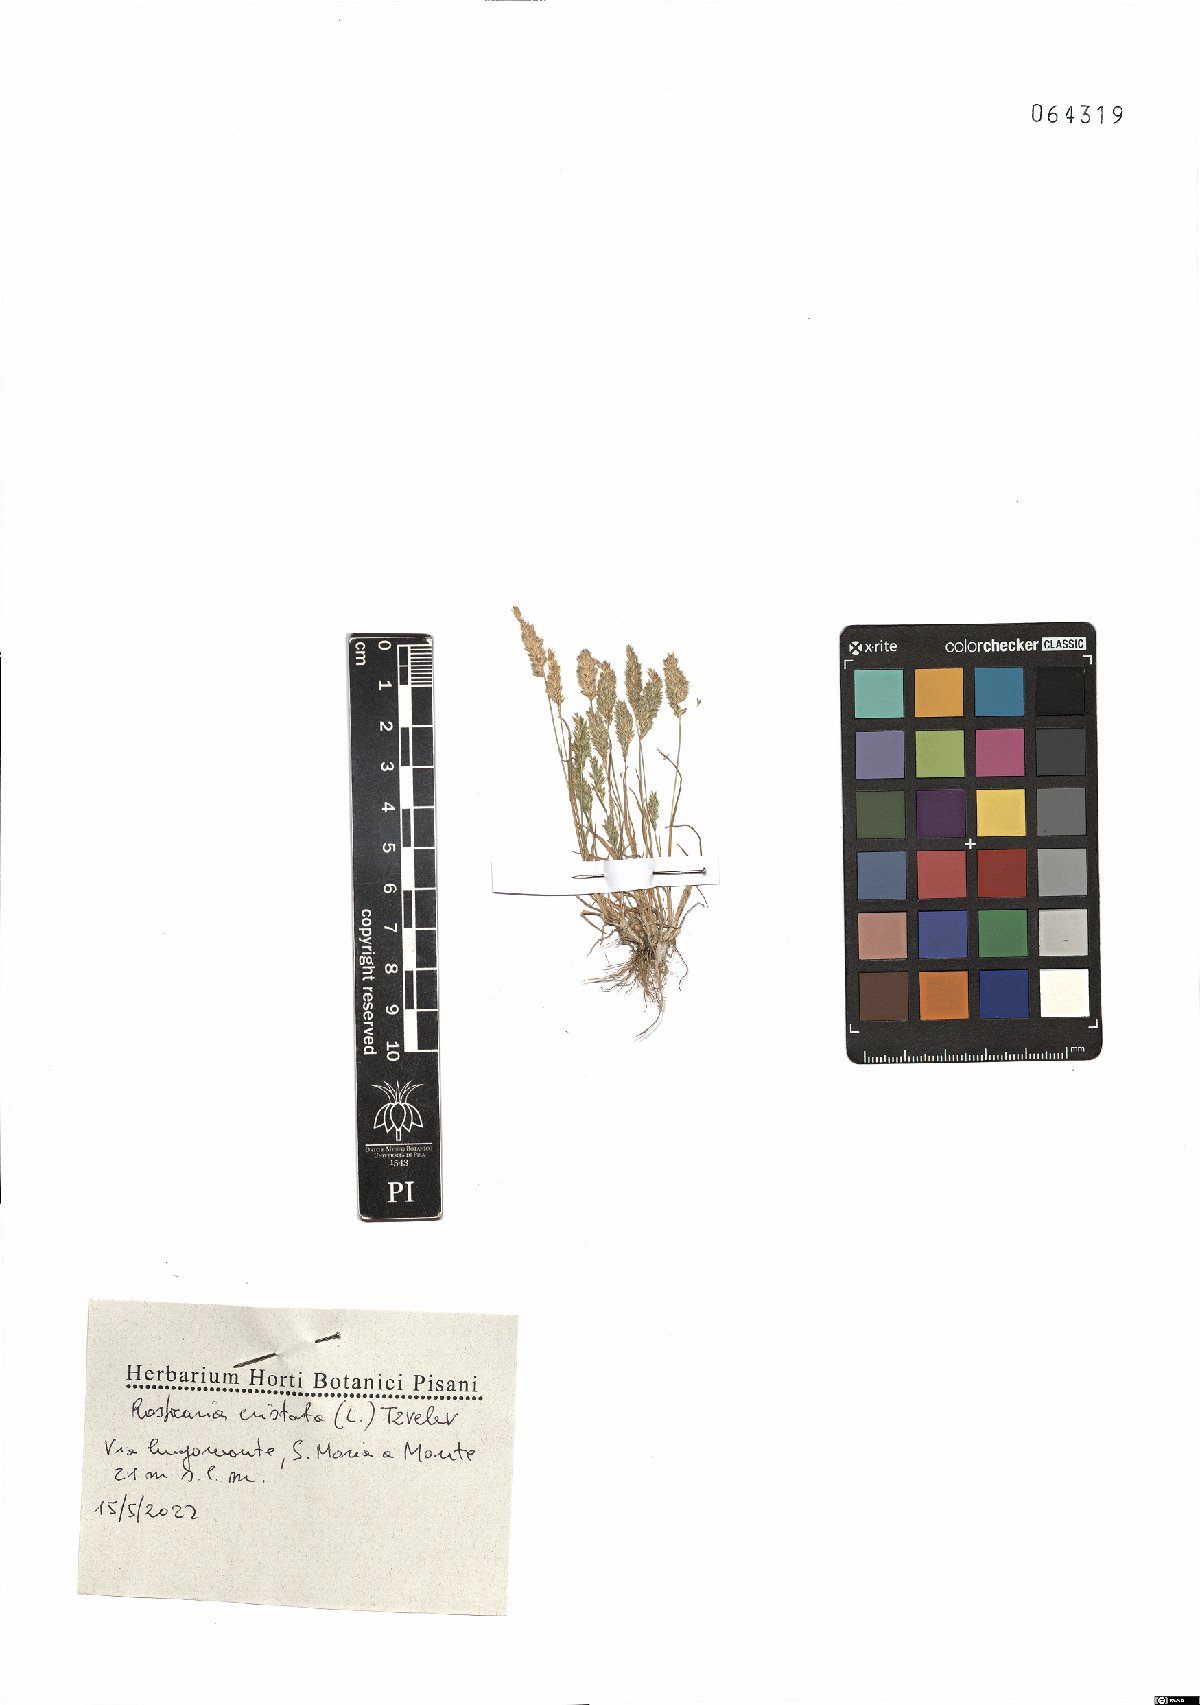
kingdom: Plantae
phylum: Tracheophyta
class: Liliopsida
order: Poales
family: Poaceae
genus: Rostraria
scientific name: Rostraria cristata
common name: Mediterranean hair-grass
